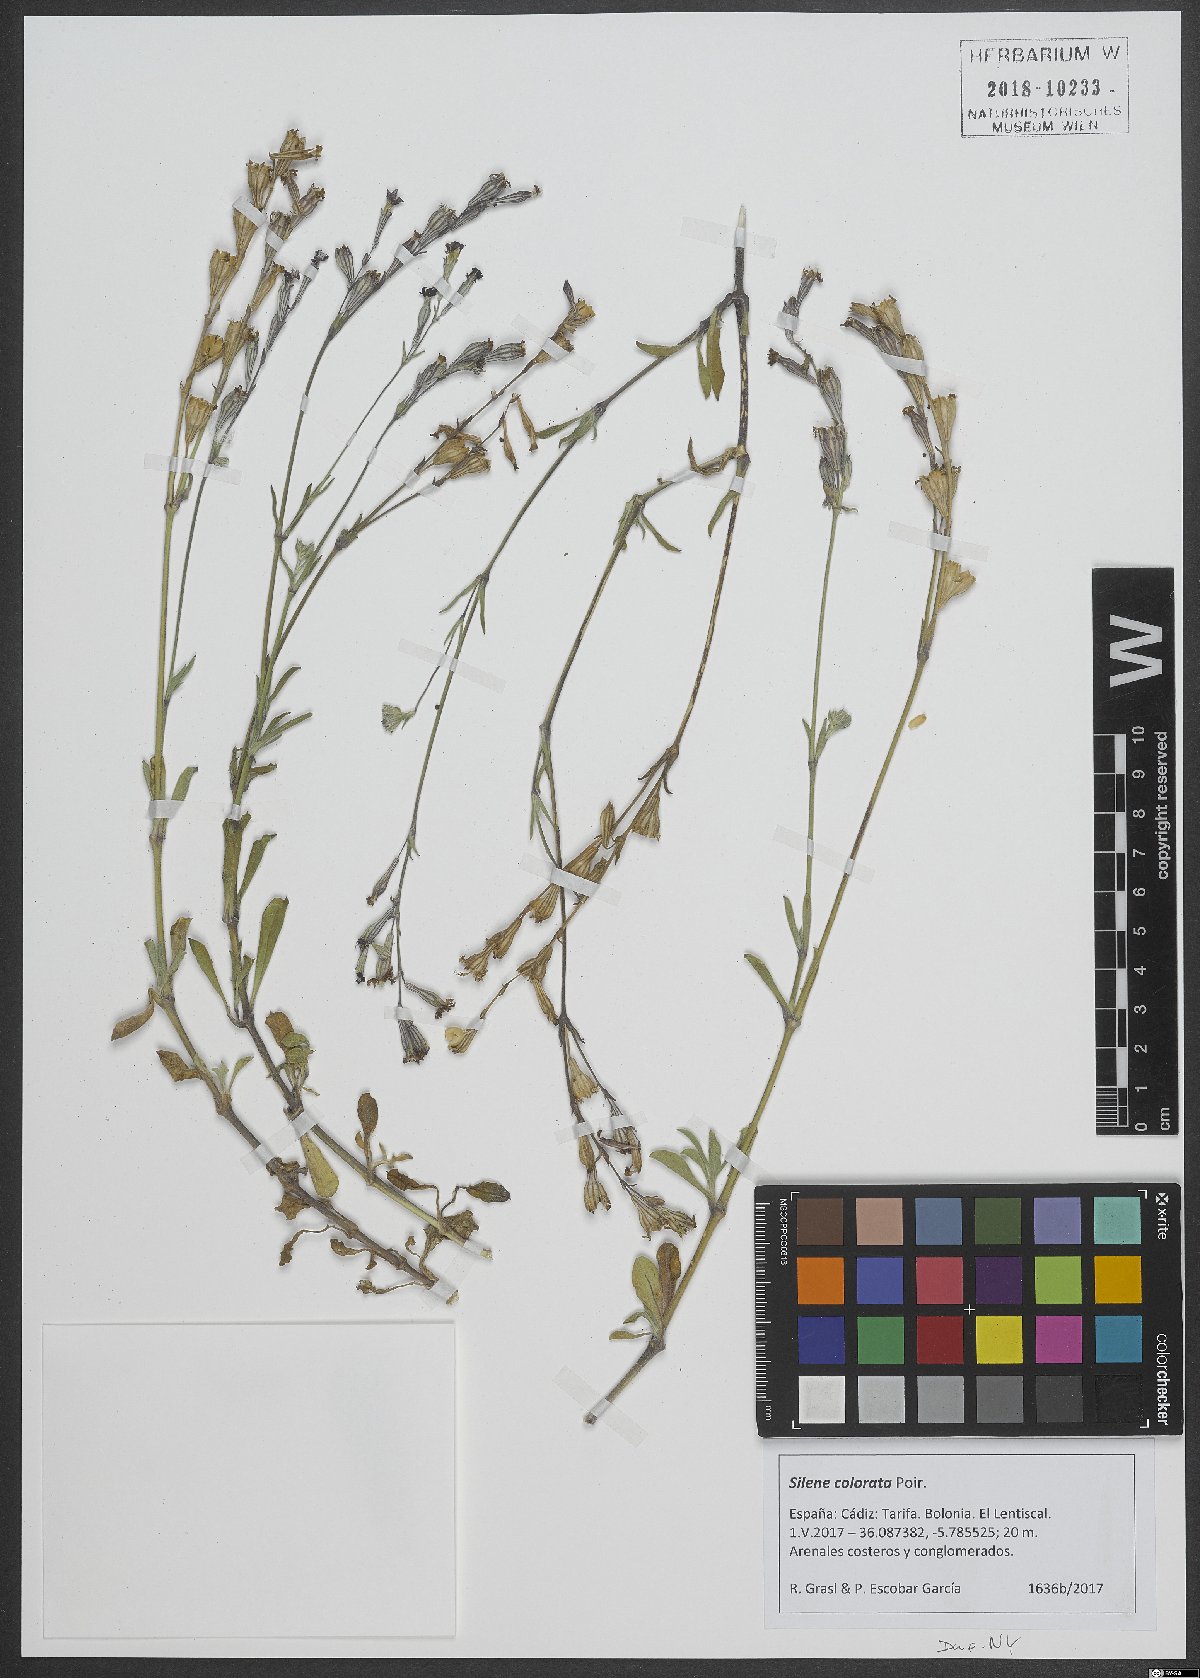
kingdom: Plantae
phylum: Tracheophyta
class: Magnoliopsida
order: Caryophyllales
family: Caryophyllaceae
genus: Silene
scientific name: Silene colorata
